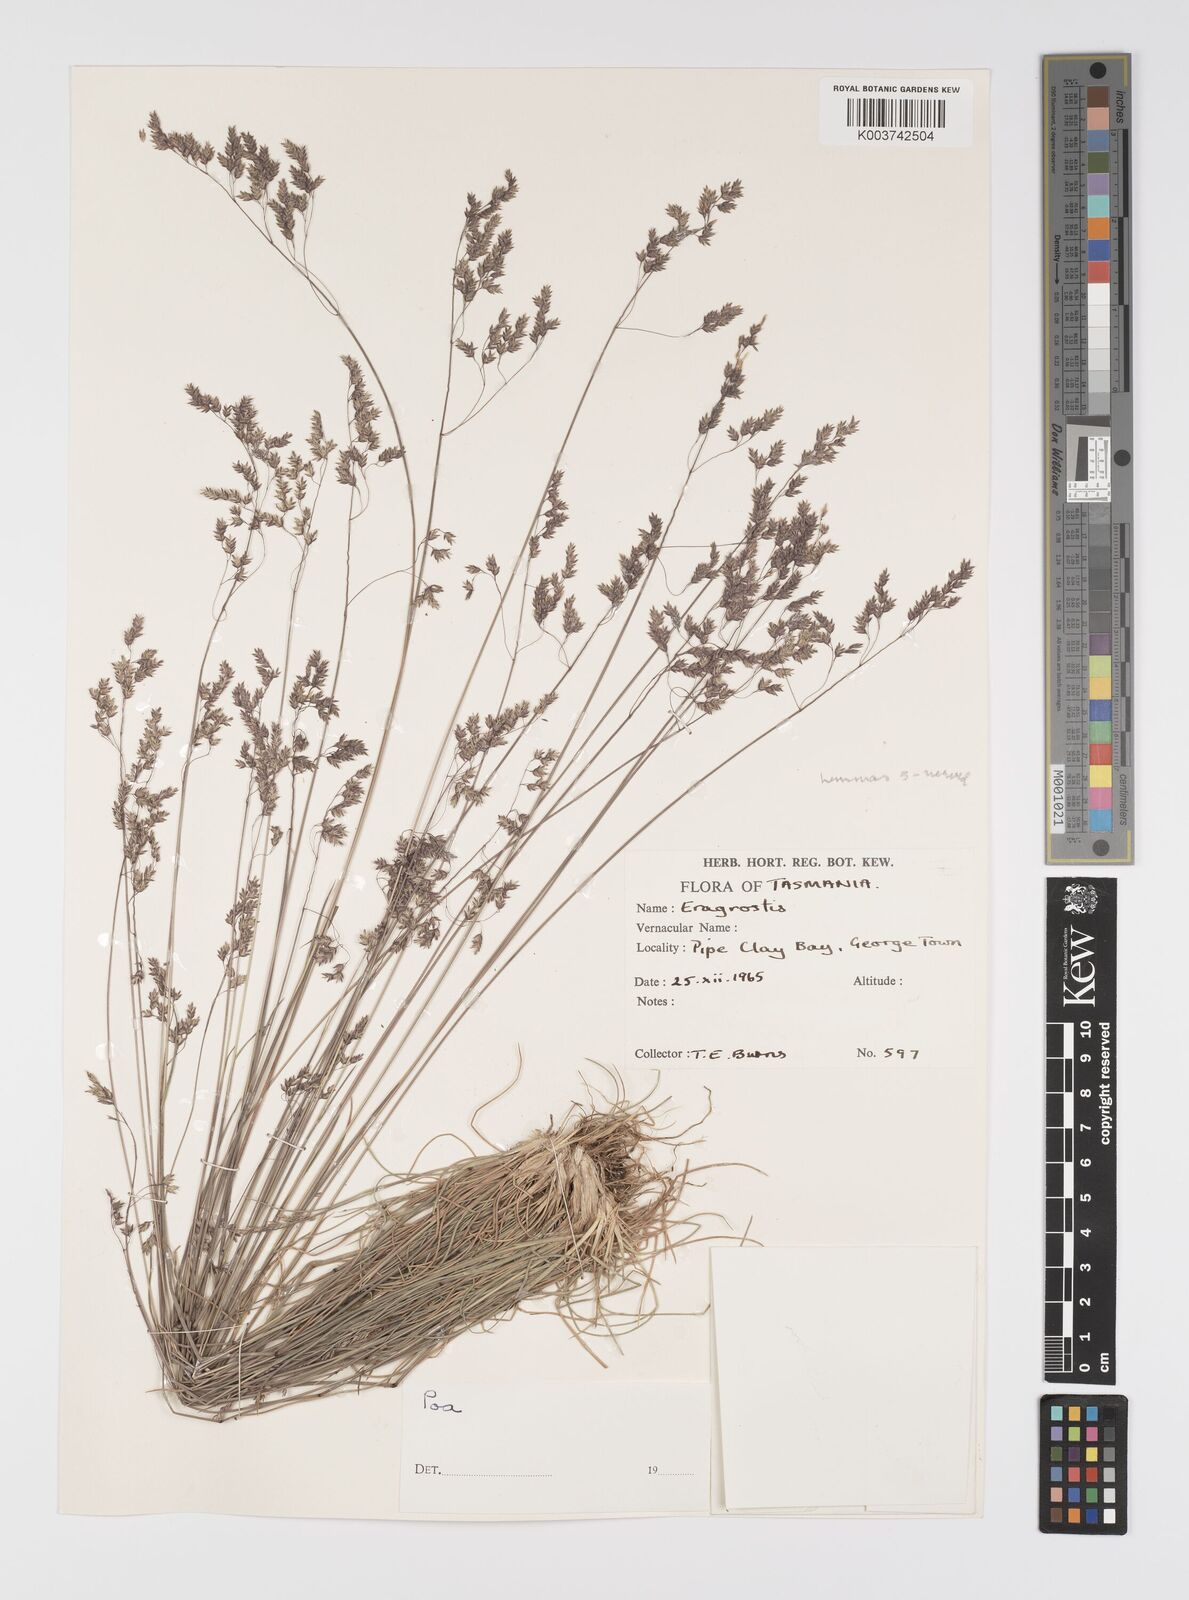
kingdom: Plantae
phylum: Tracheophyta
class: Liliopsida
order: Poales
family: Poaceae
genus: Poa
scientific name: Poa
